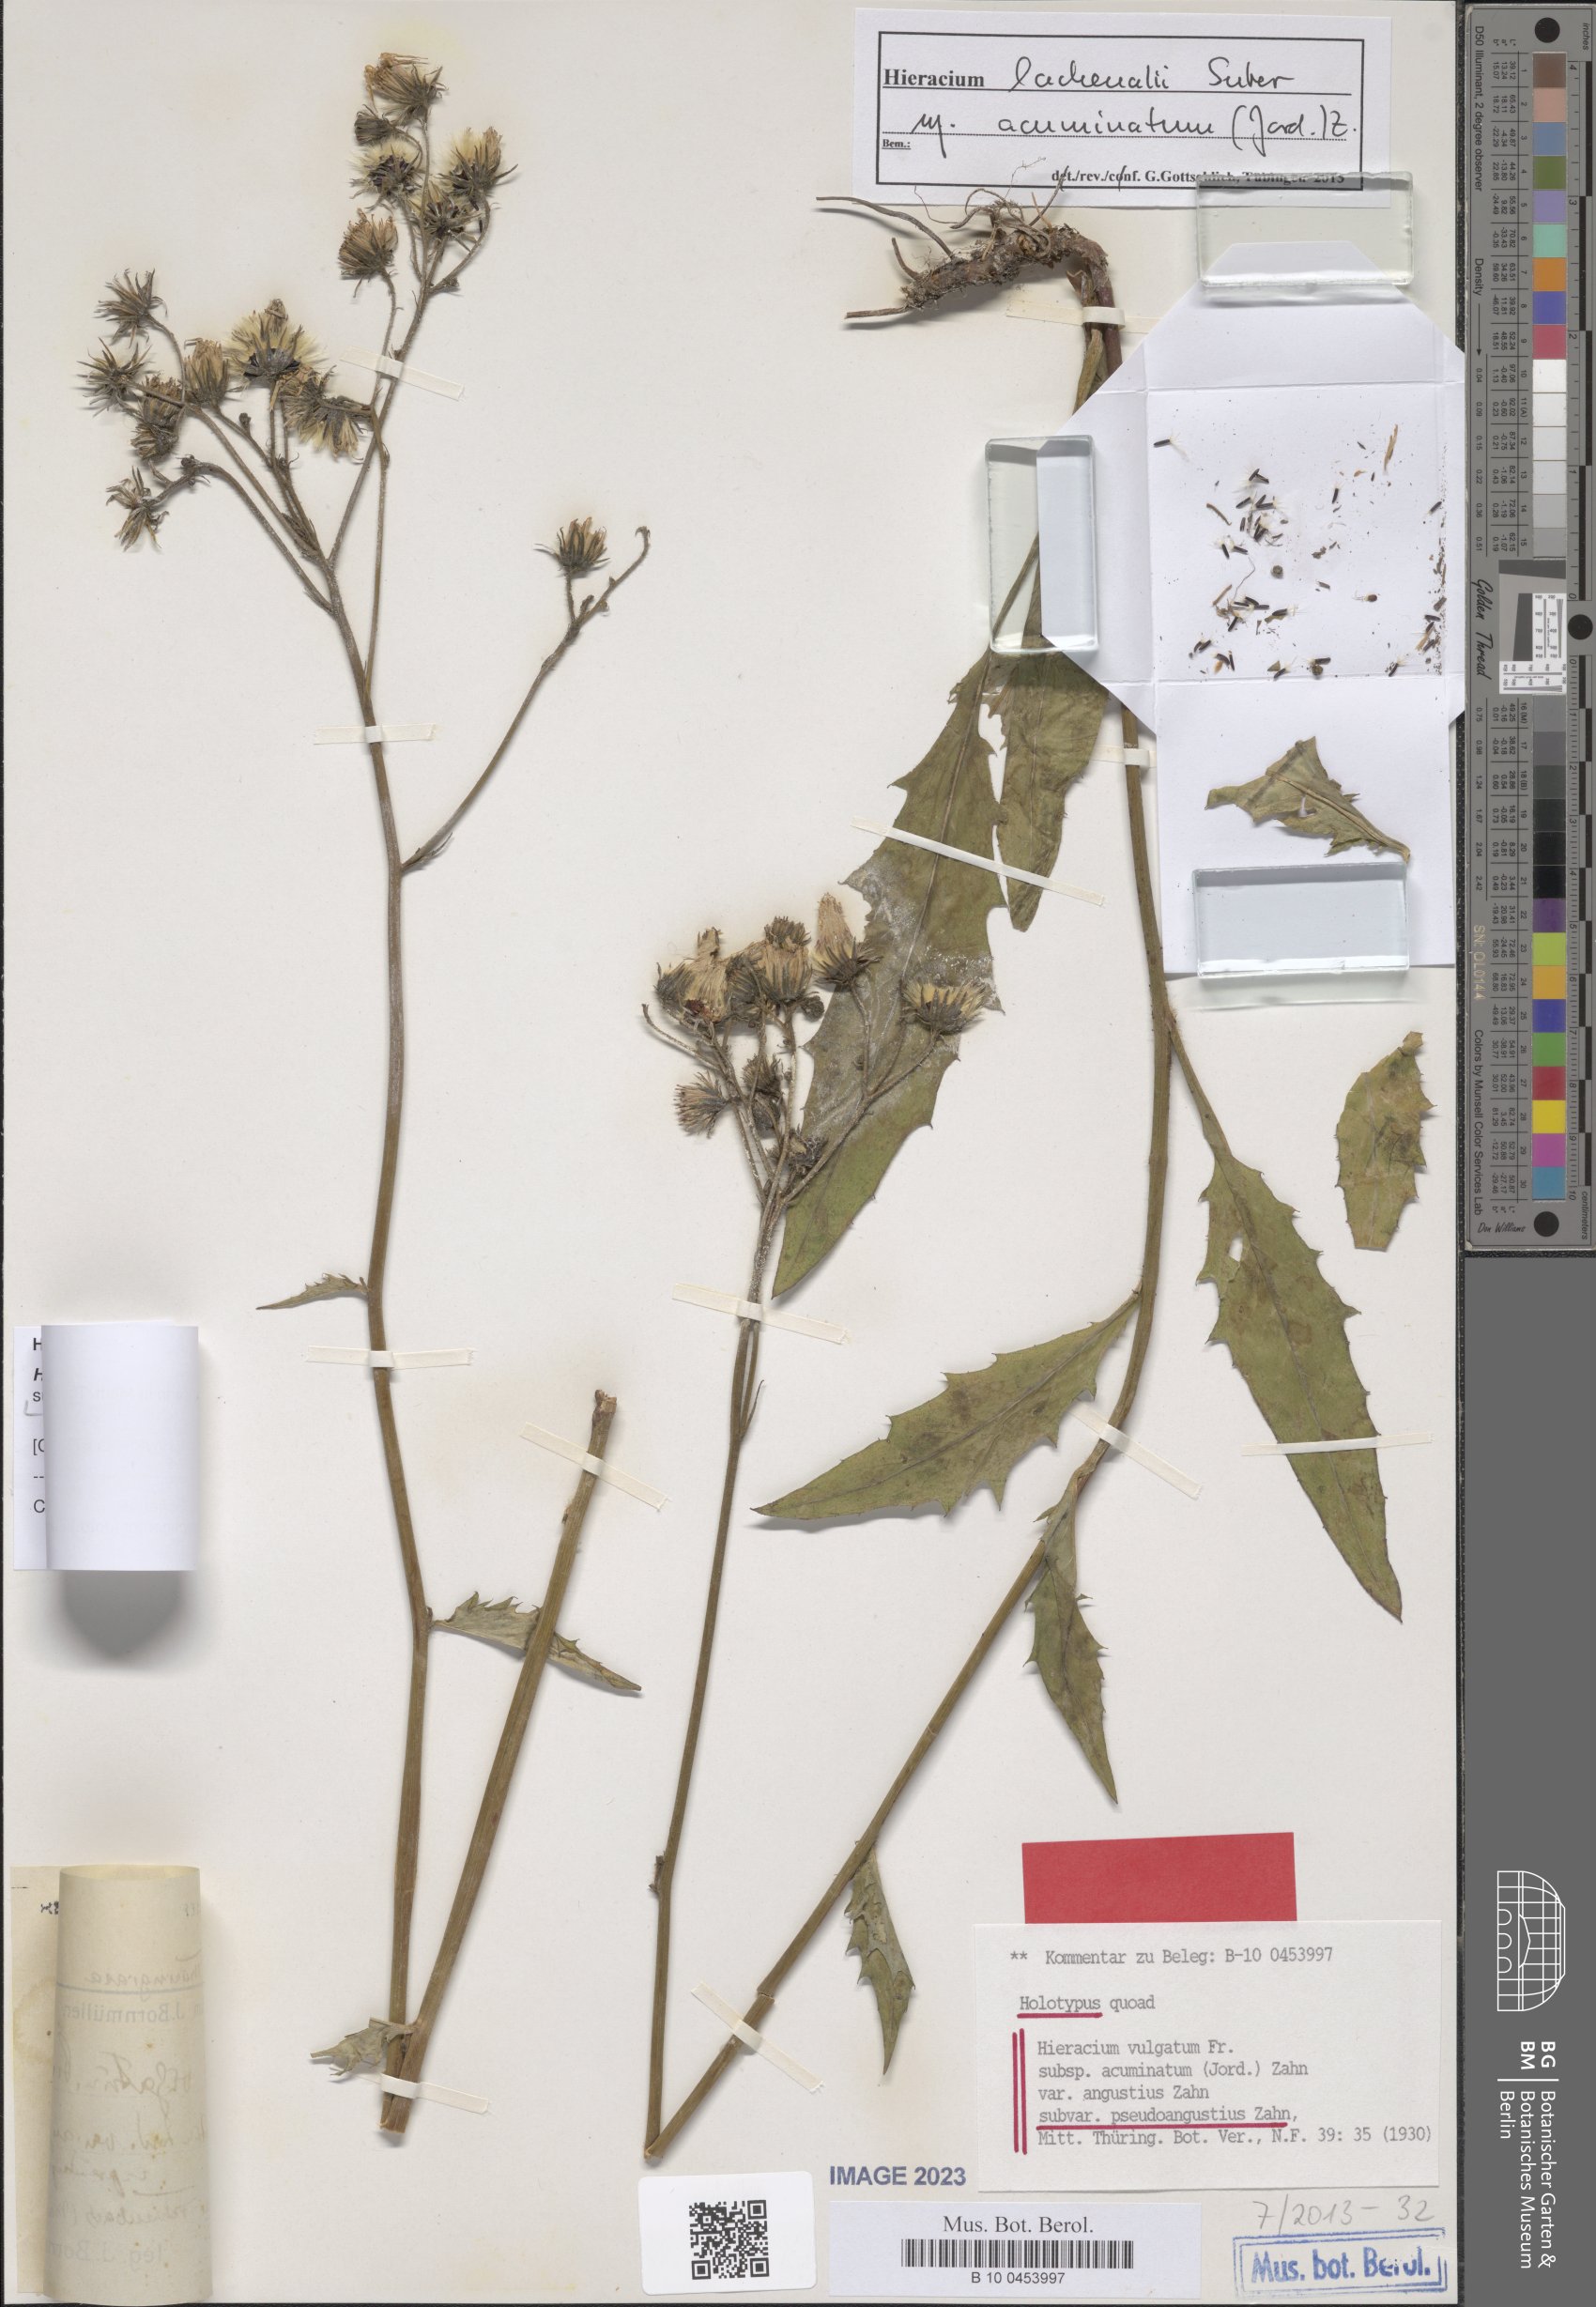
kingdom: Plantae
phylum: Tracheophyta
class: Magnoliopsida
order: Asterales
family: Asteraceae
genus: Hieracium
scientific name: Hieracium vulgatum
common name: Common hawkweed
